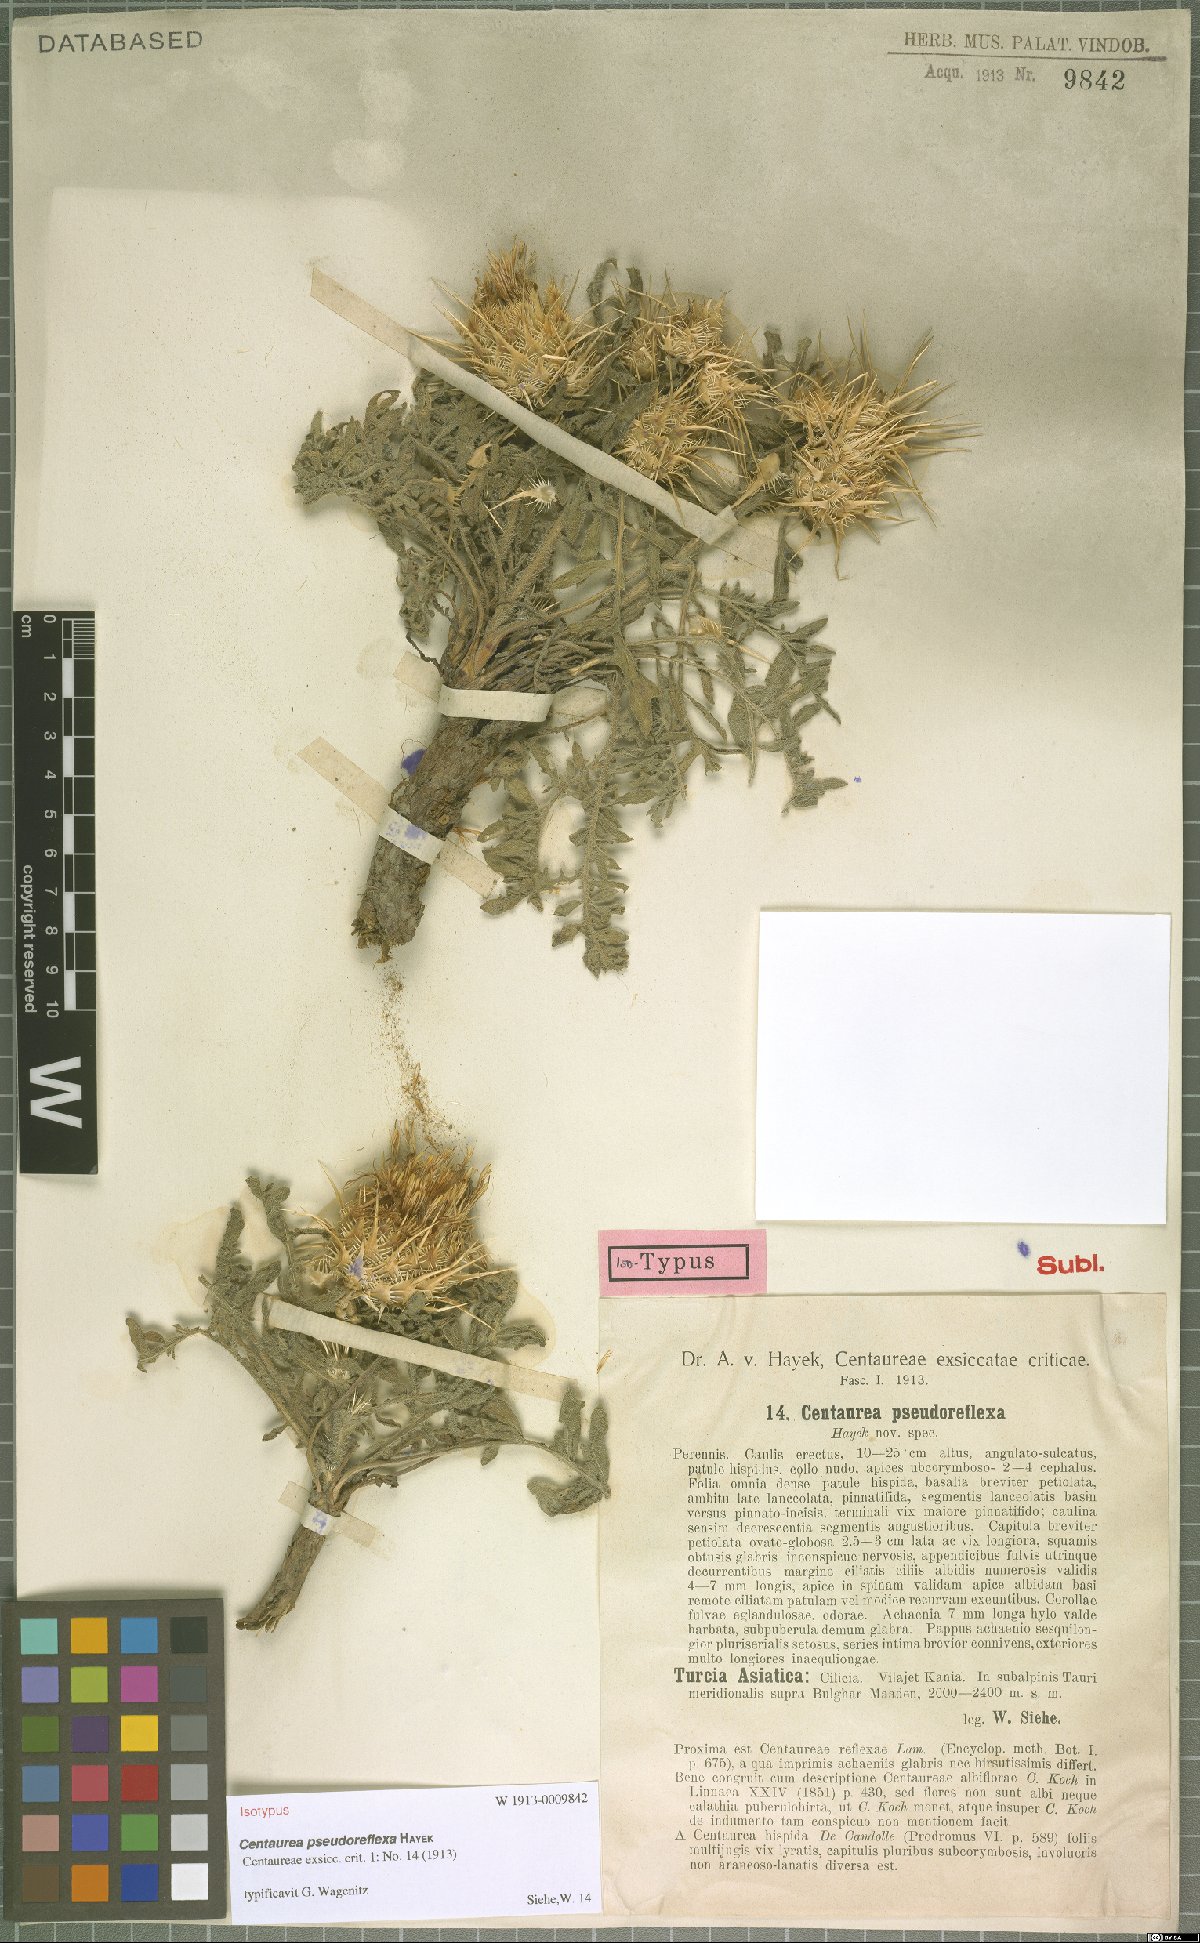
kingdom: Plantae
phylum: Tracheophyta
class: Magnoliopsida
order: Asterales
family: Asteraceae
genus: Centaurea
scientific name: Centaurea pseudoreflexa
